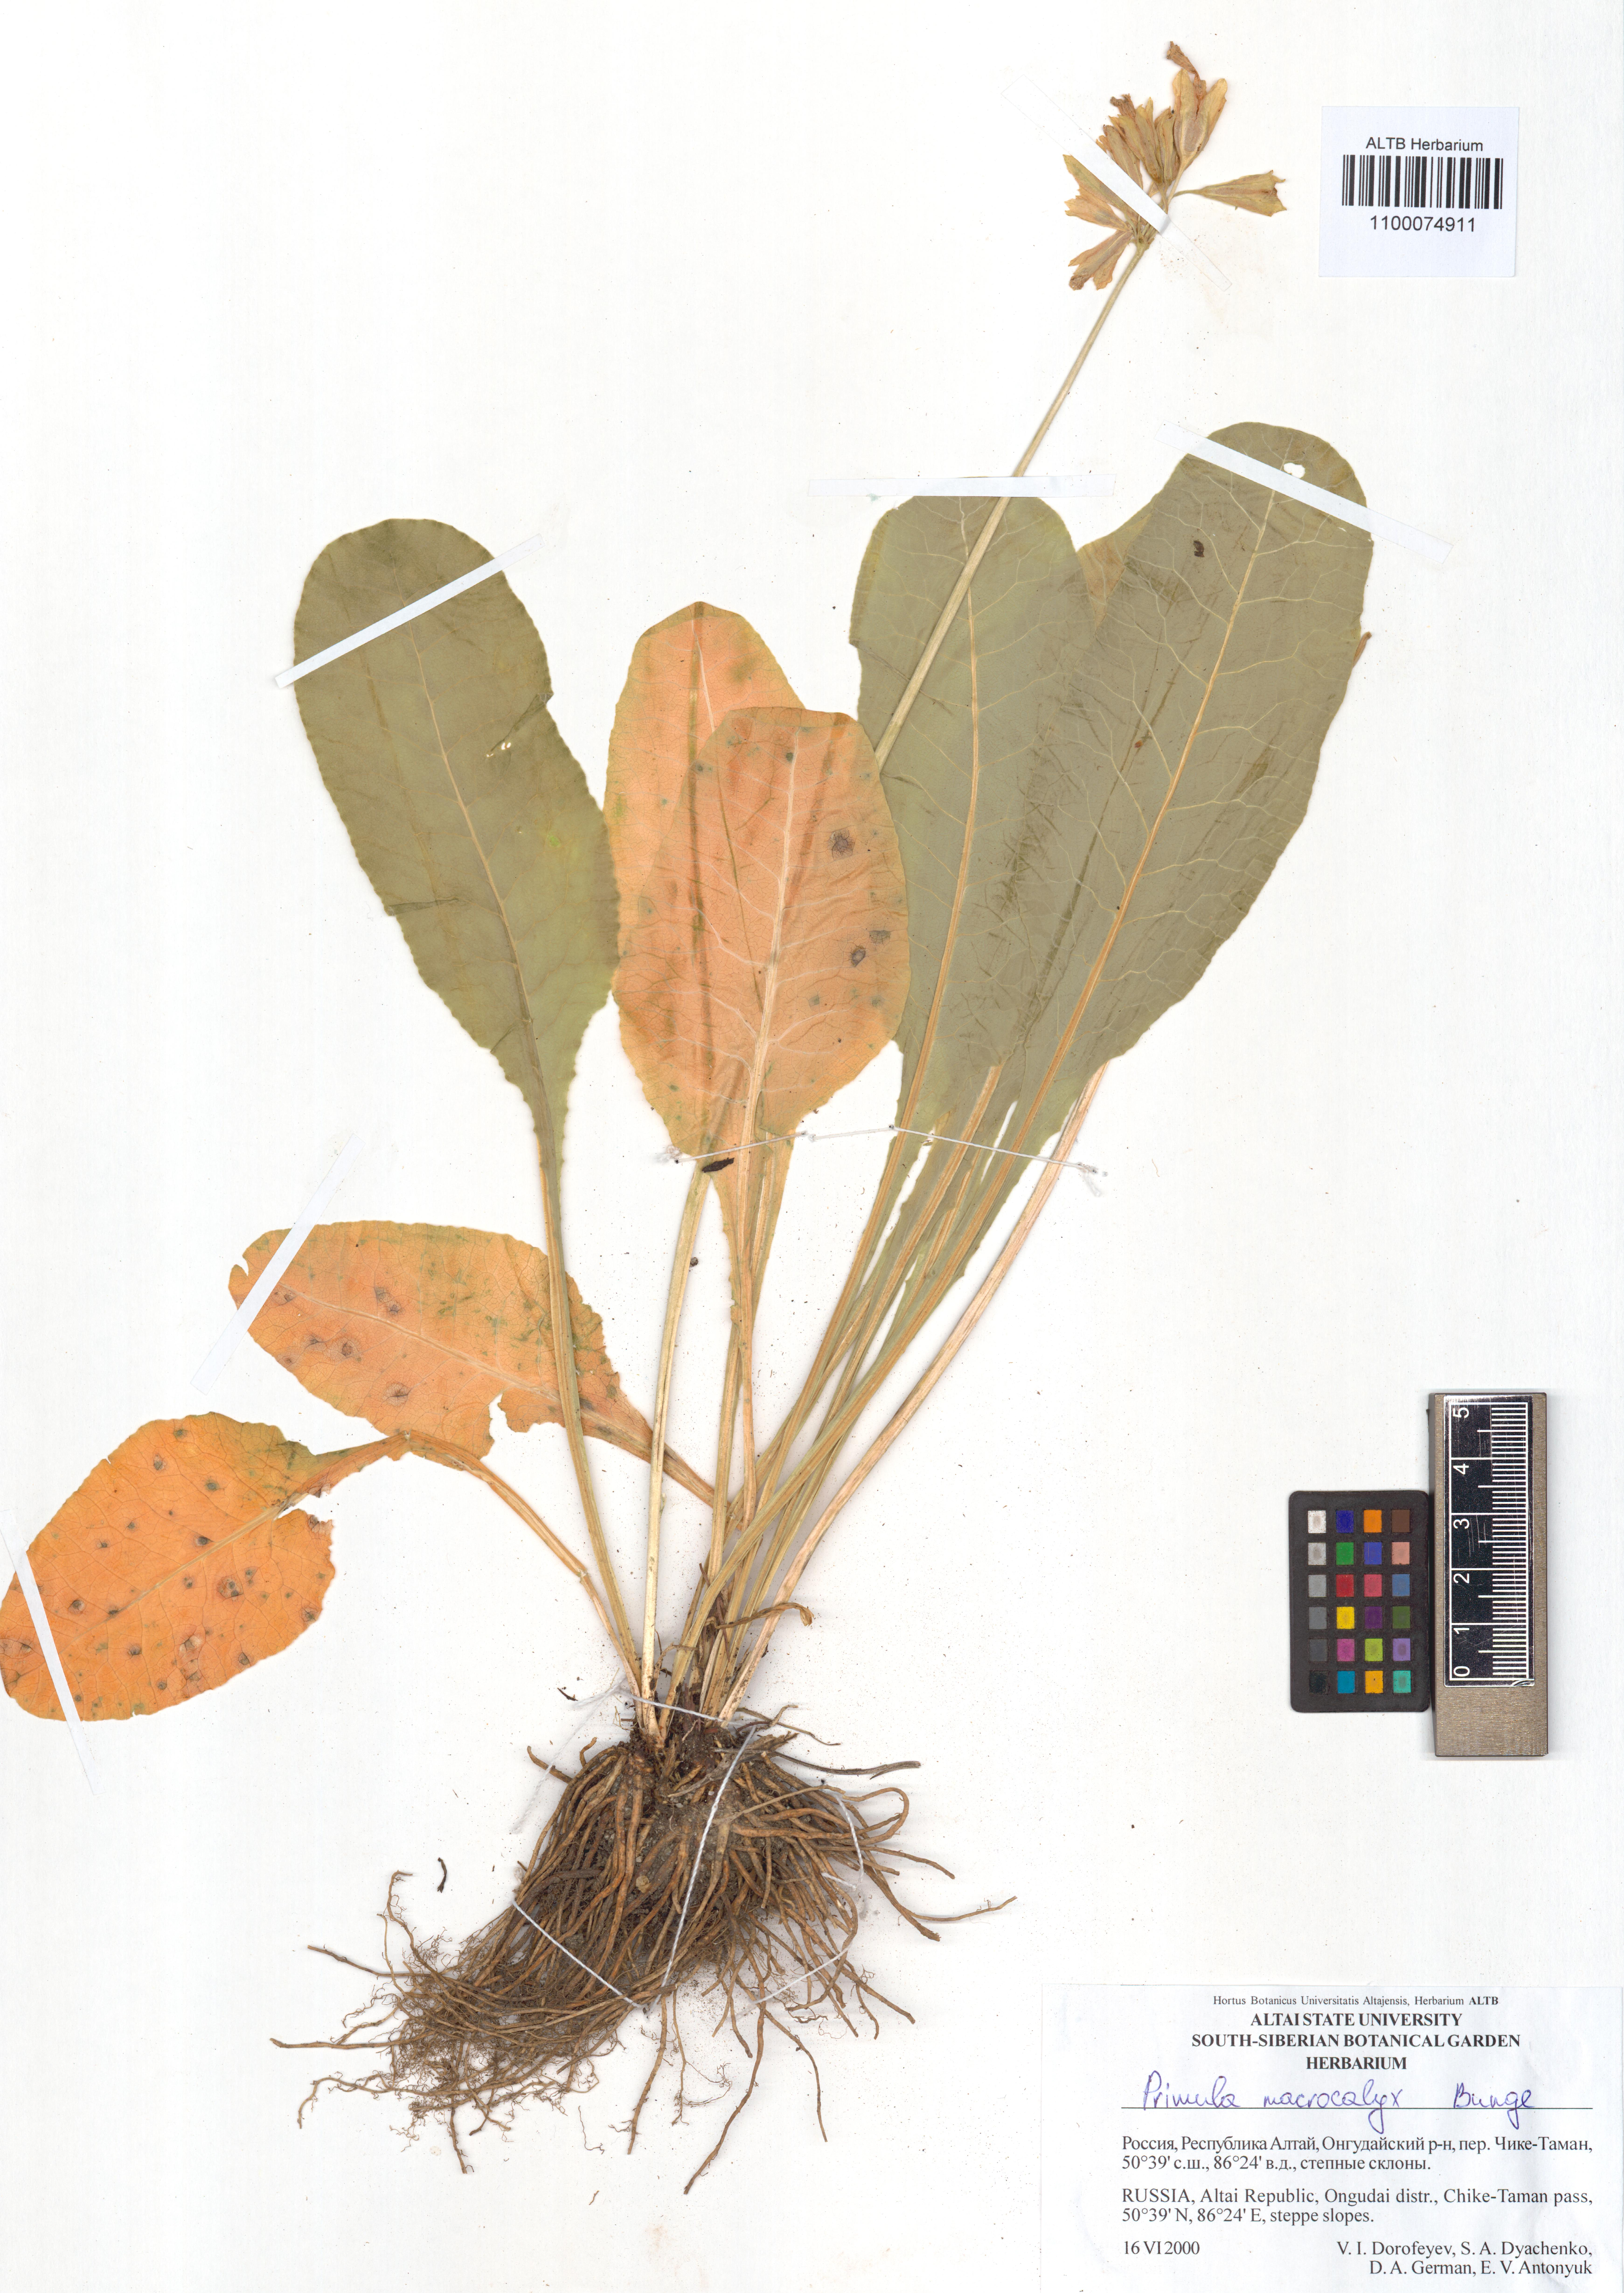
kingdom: Plantae
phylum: Tracheophyta
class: Magnoliopsida
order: Ericales
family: Primulaceae
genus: Primula
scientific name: Primula veris
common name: Cowslip
